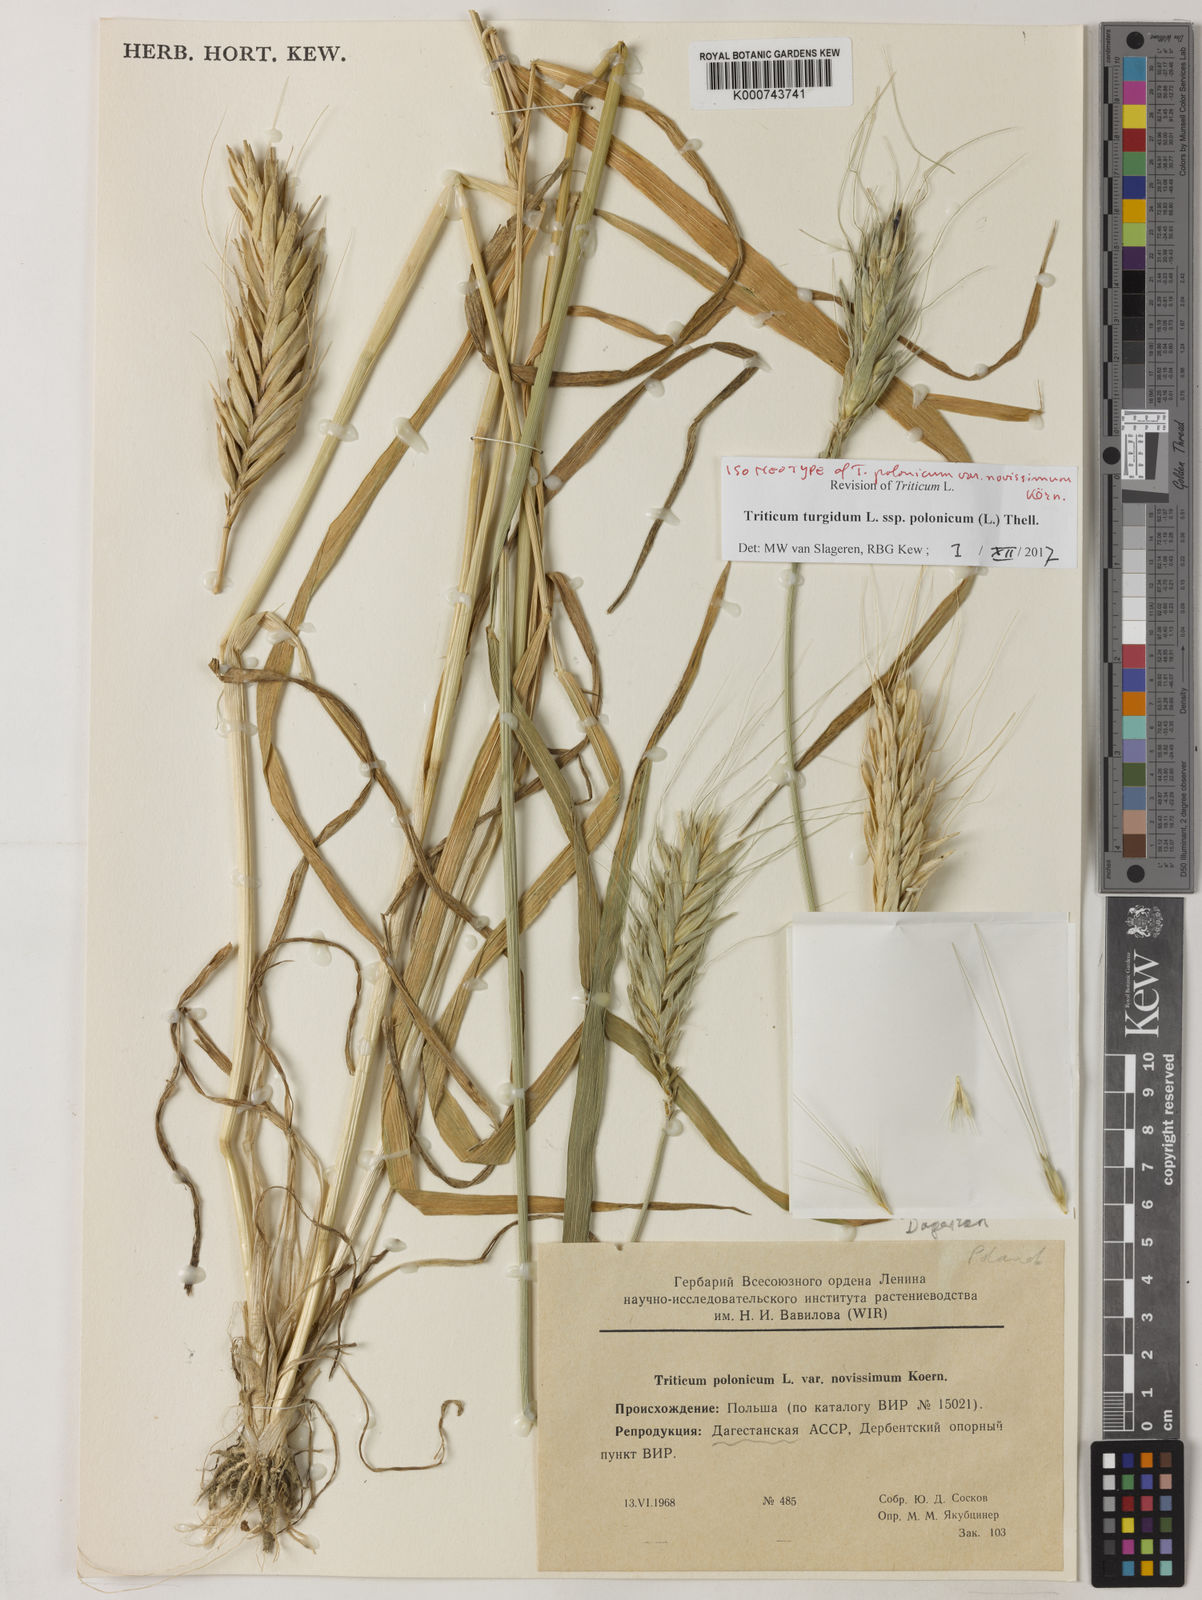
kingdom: Plantae
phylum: Tracheophyta
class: Liliopsida
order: Poales
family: Poaceae
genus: Triticum
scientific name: Triticum turgidum
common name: Rivet wheat
